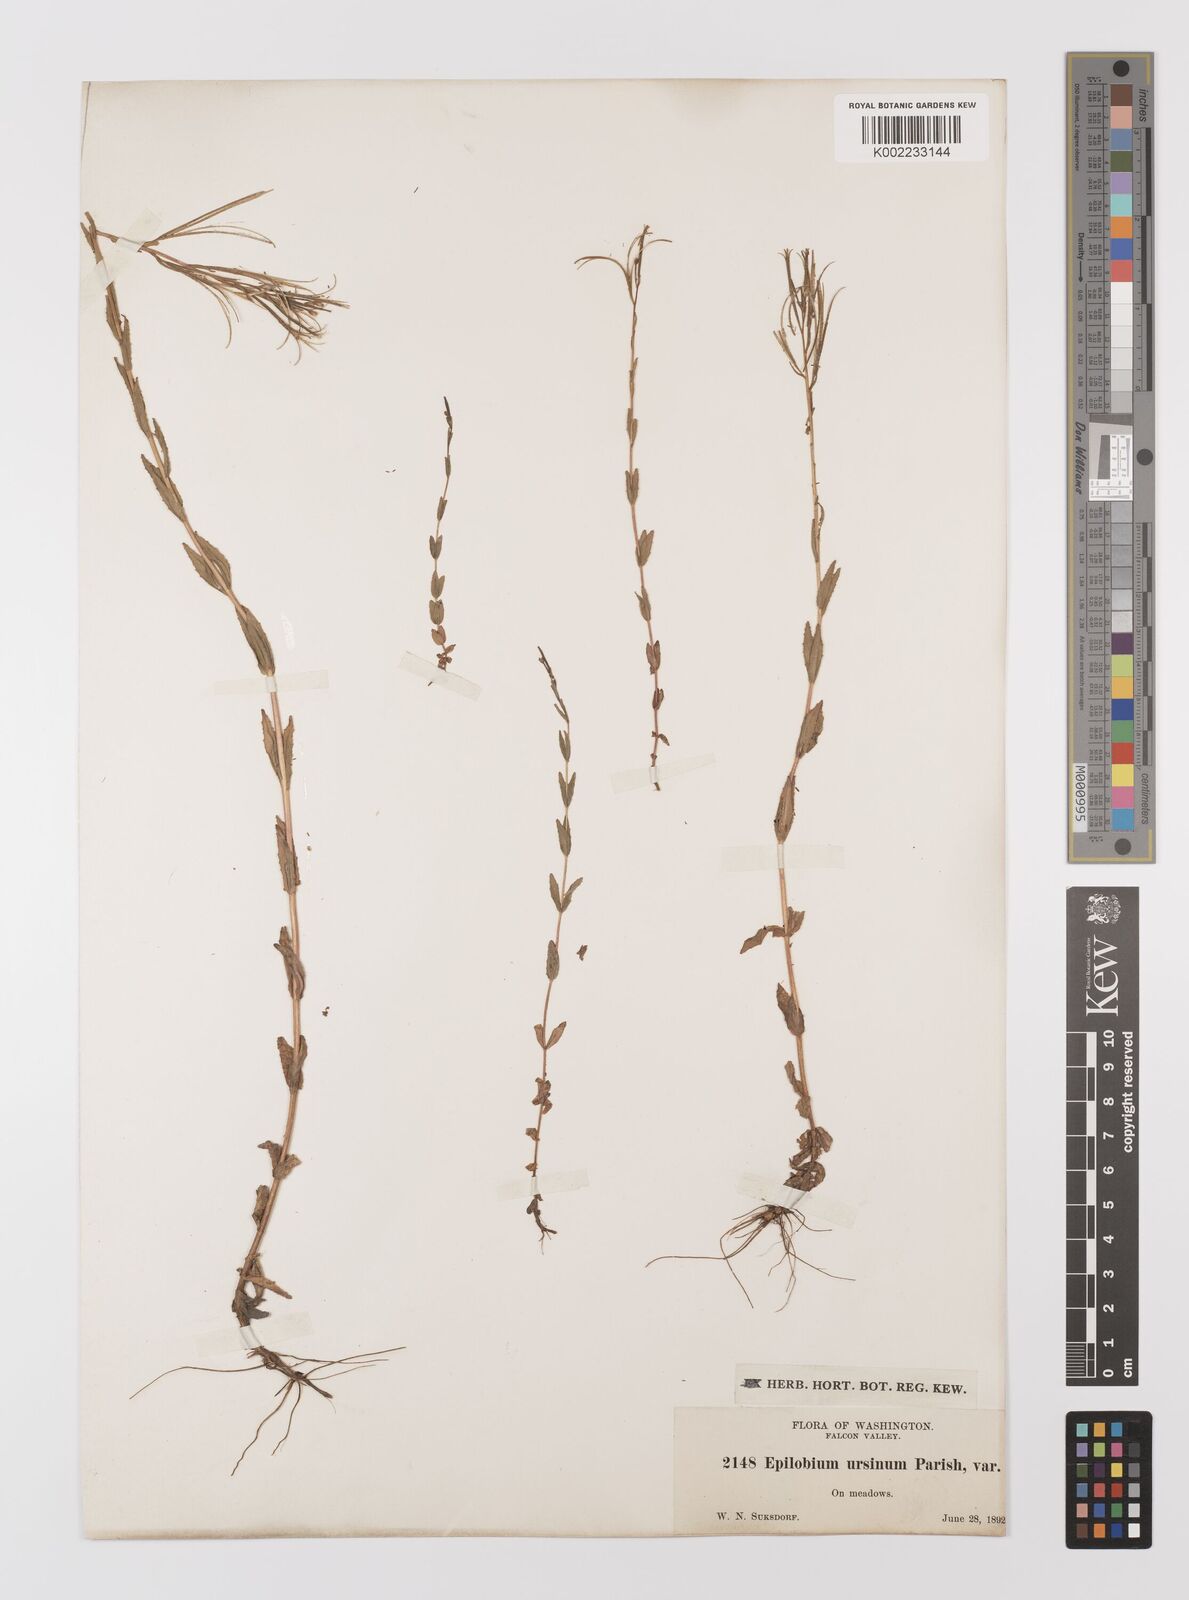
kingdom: Plantae
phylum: Tracheophyta
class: Magnoliopsida
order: Myrtales
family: Onagraceae
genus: Epilobium
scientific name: Epilobium
